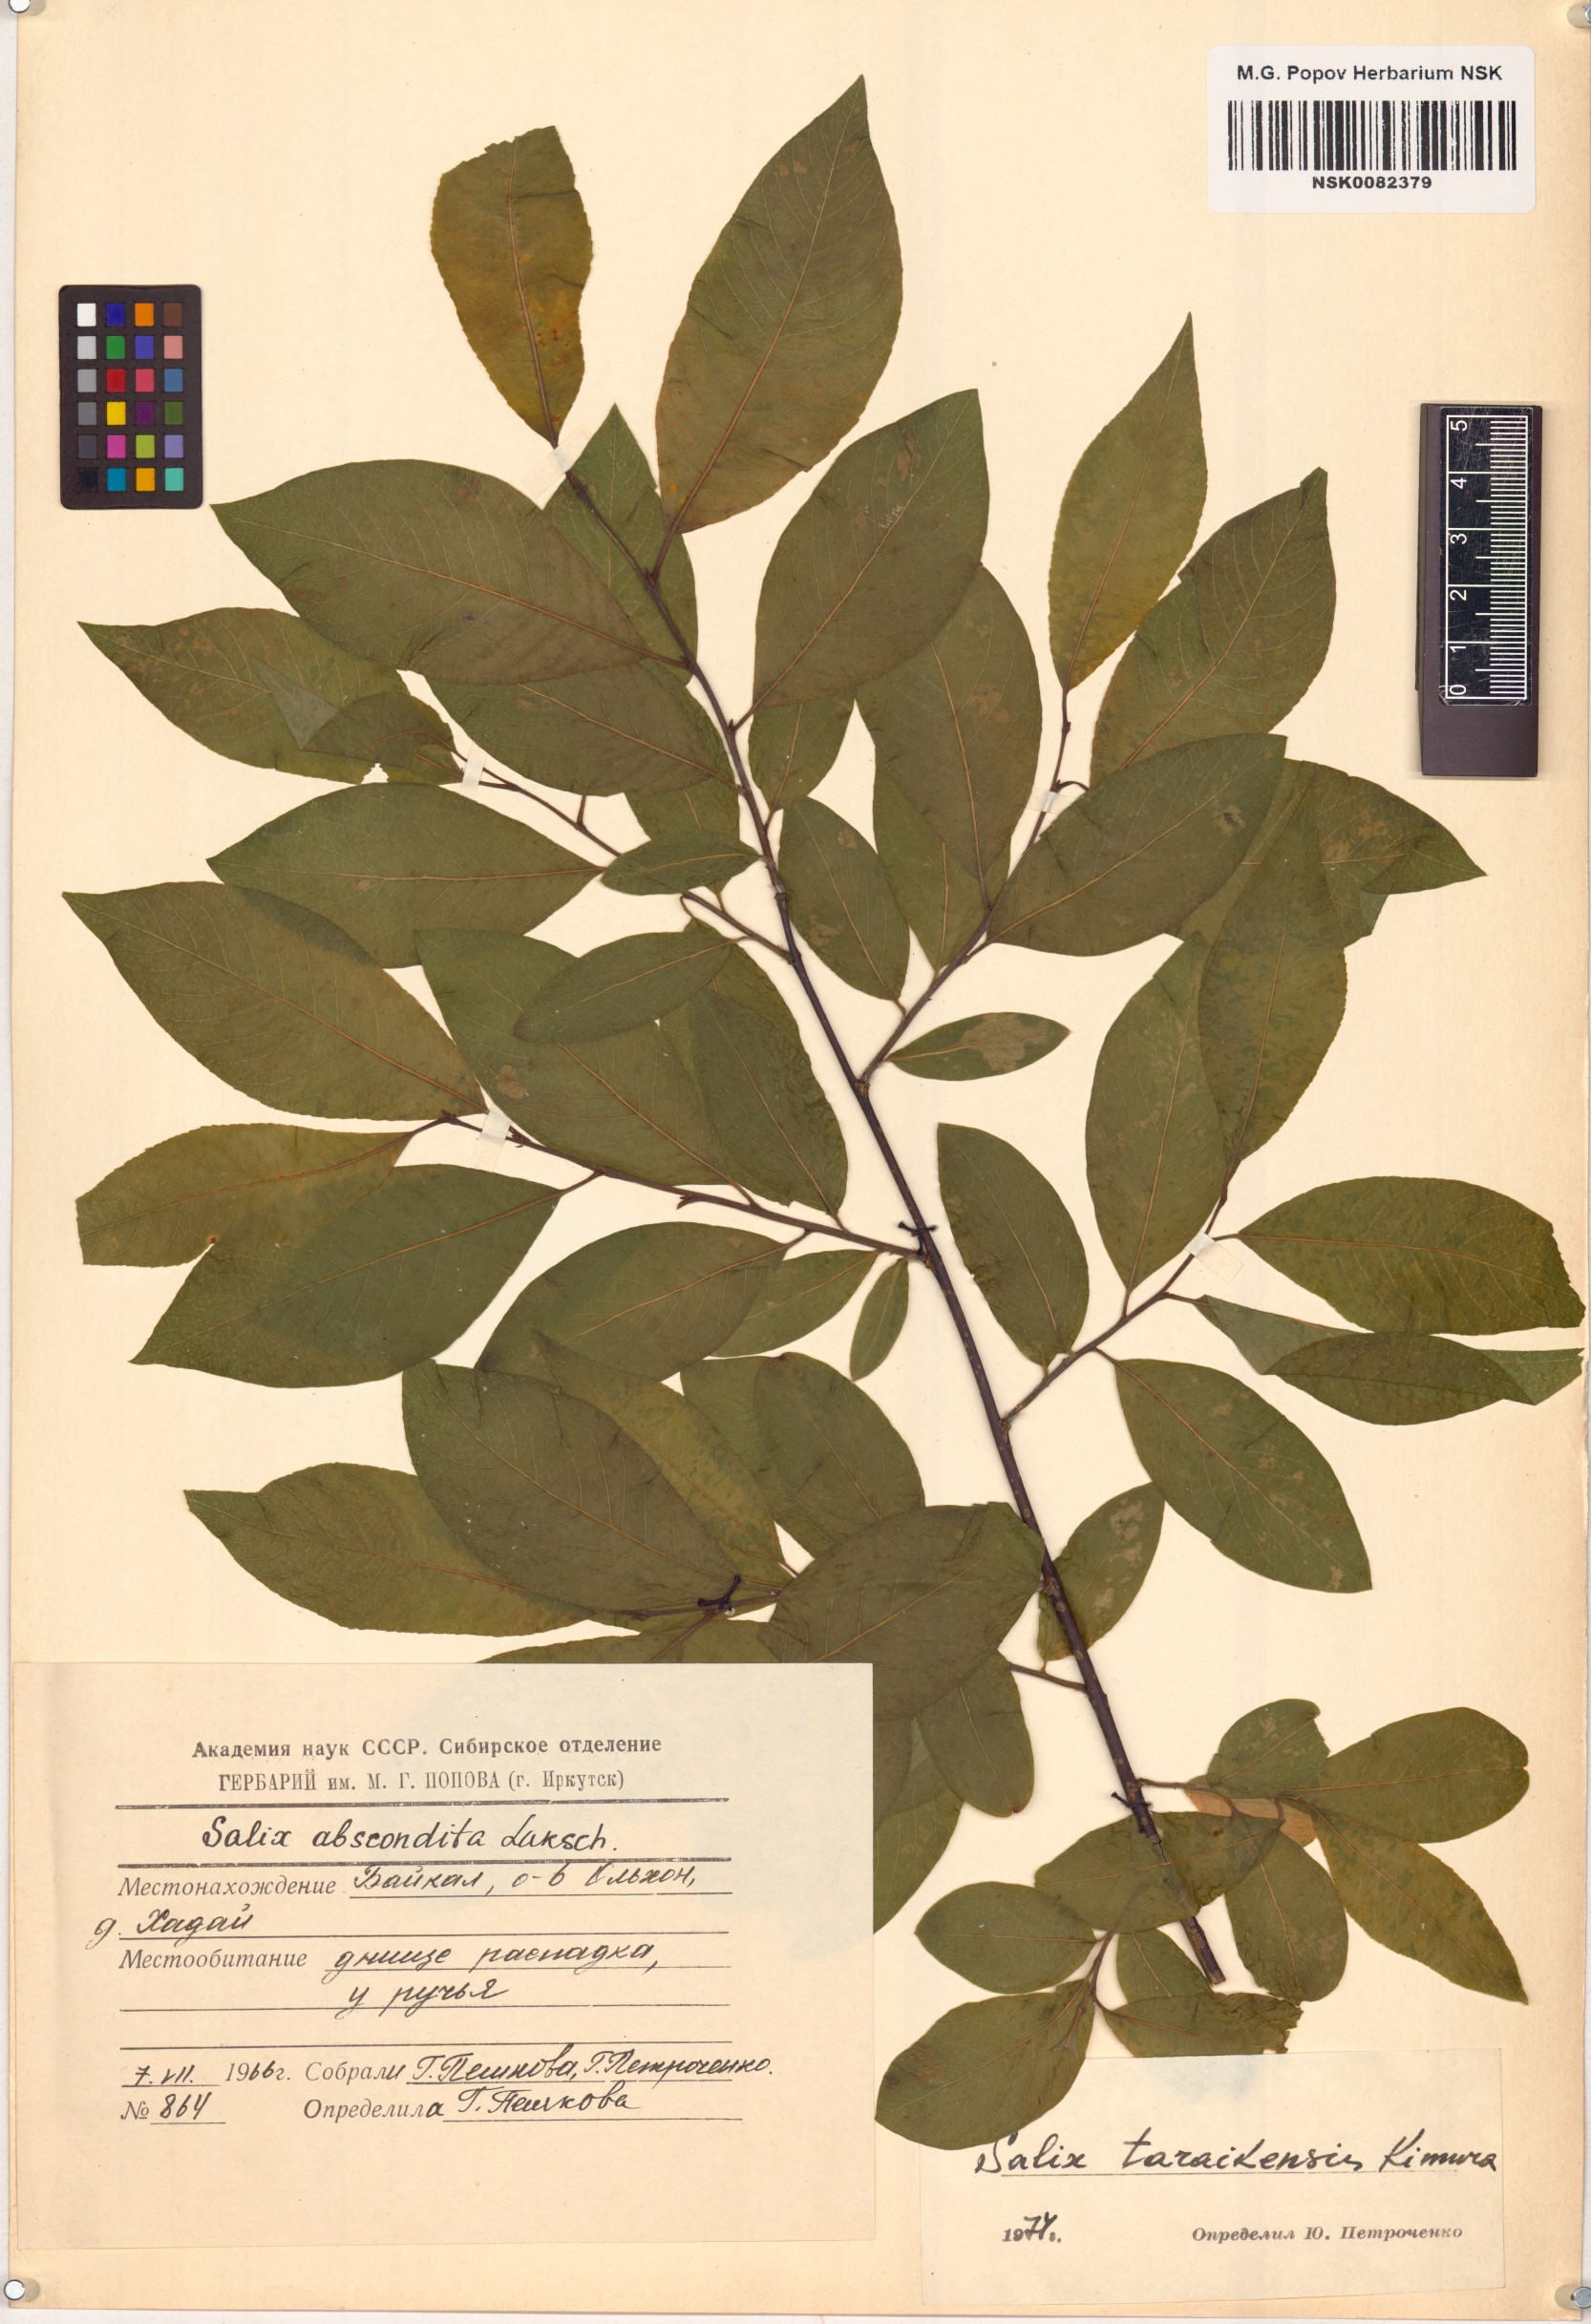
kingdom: Plantae
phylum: Tracheophyta
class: Magnoliopsida
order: Malpighiales
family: Salicaceae
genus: Salix
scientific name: Salix taraikensis
